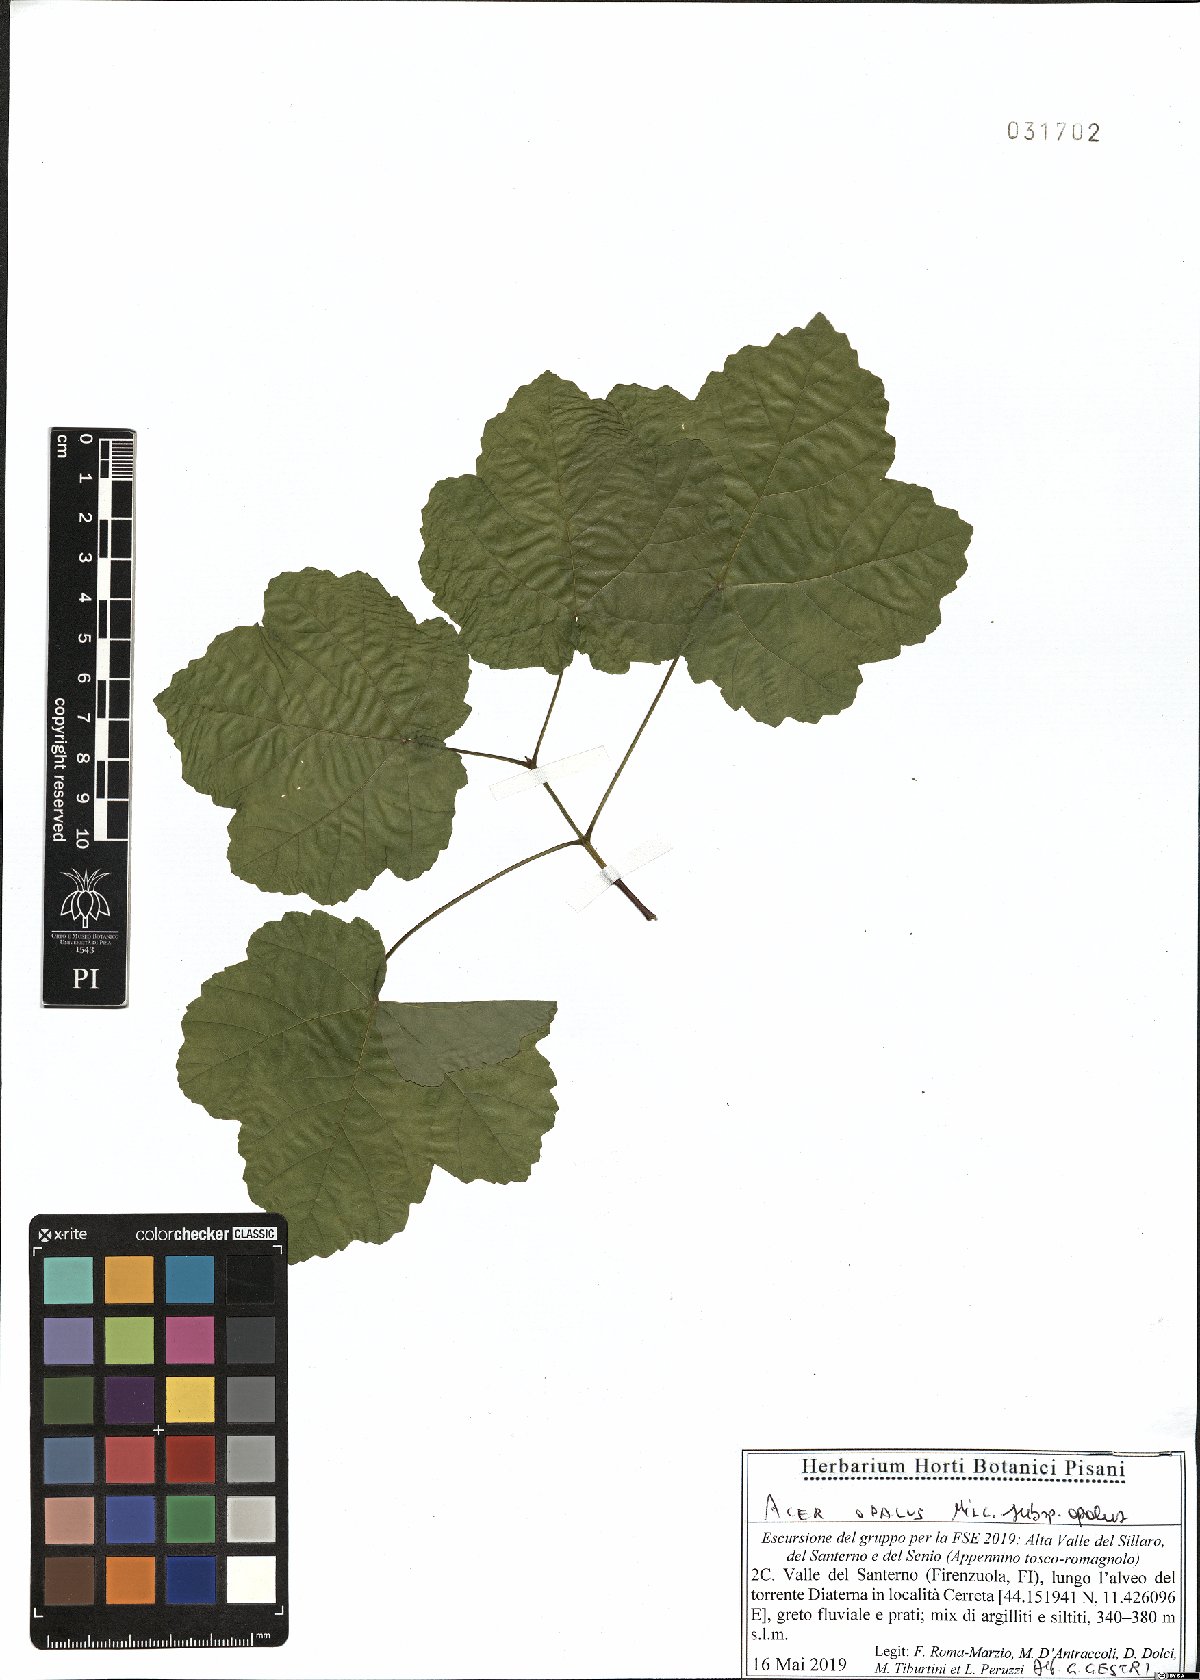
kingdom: Plantae
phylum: Tracheophyta
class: Magnoliopsida
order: Sapindales
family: Sapindaceae
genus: Acer
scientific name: Acer opalus
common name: Italian maple
